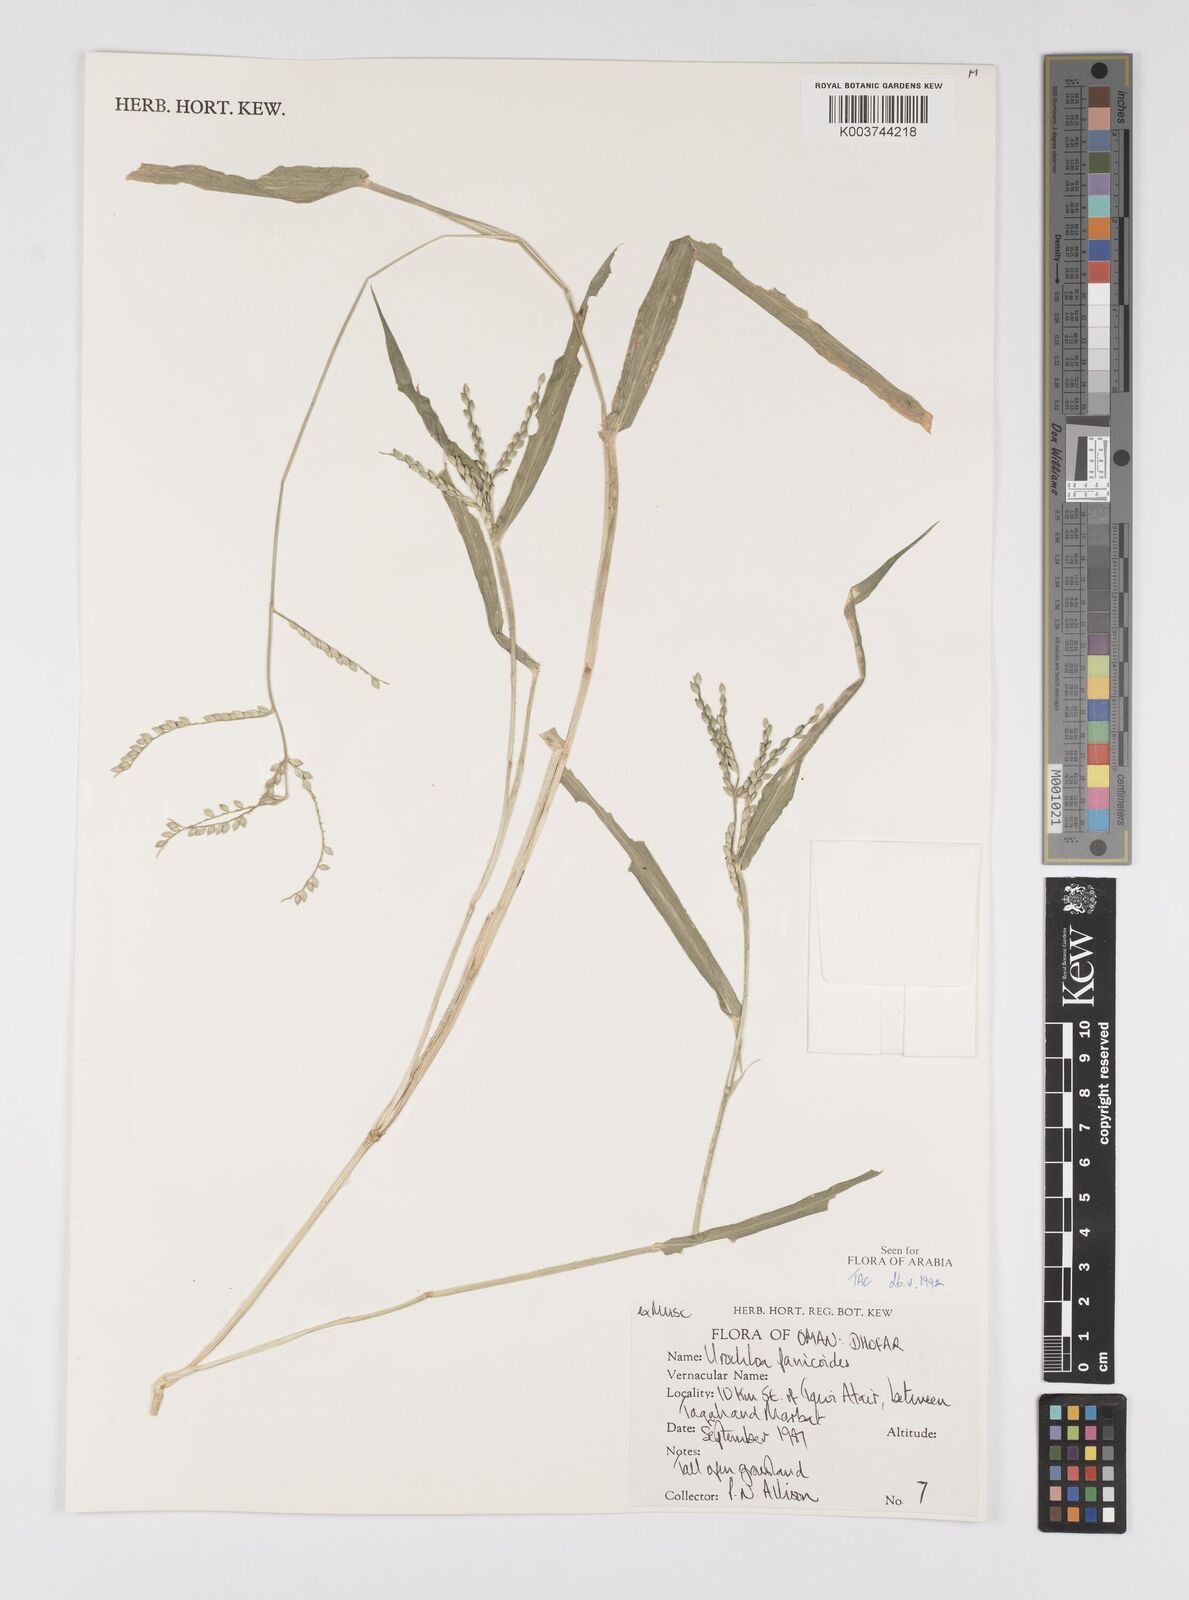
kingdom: Plantae
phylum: Tracheophyta
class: Liliopsida
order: Poales
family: Poaceae
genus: Urochloa
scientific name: Urochloa panicoides
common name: Sharp-flowered signal-grass
